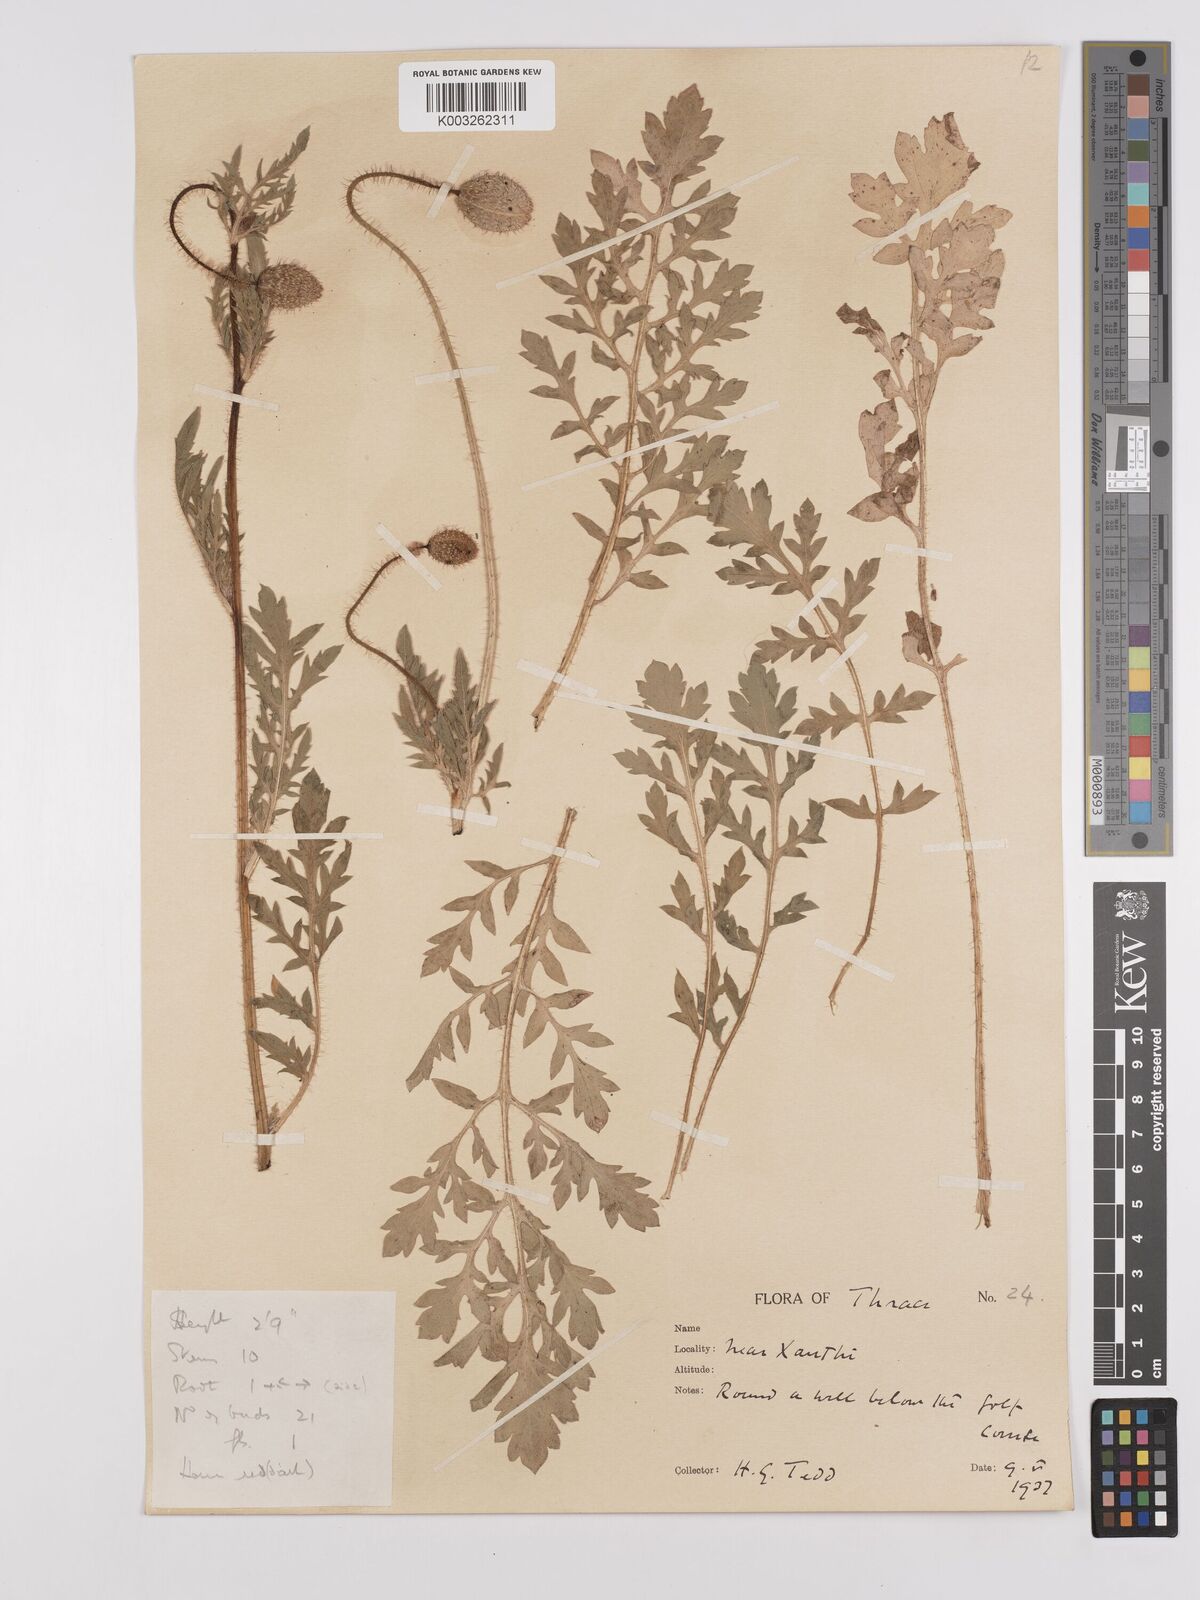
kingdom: Plantae
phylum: Tracheophyta
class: Magnoliopsida
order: Ranunculales
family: Papaveraceae
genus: Papaver
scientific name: Papaver rhoeas
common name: Corn poppy
